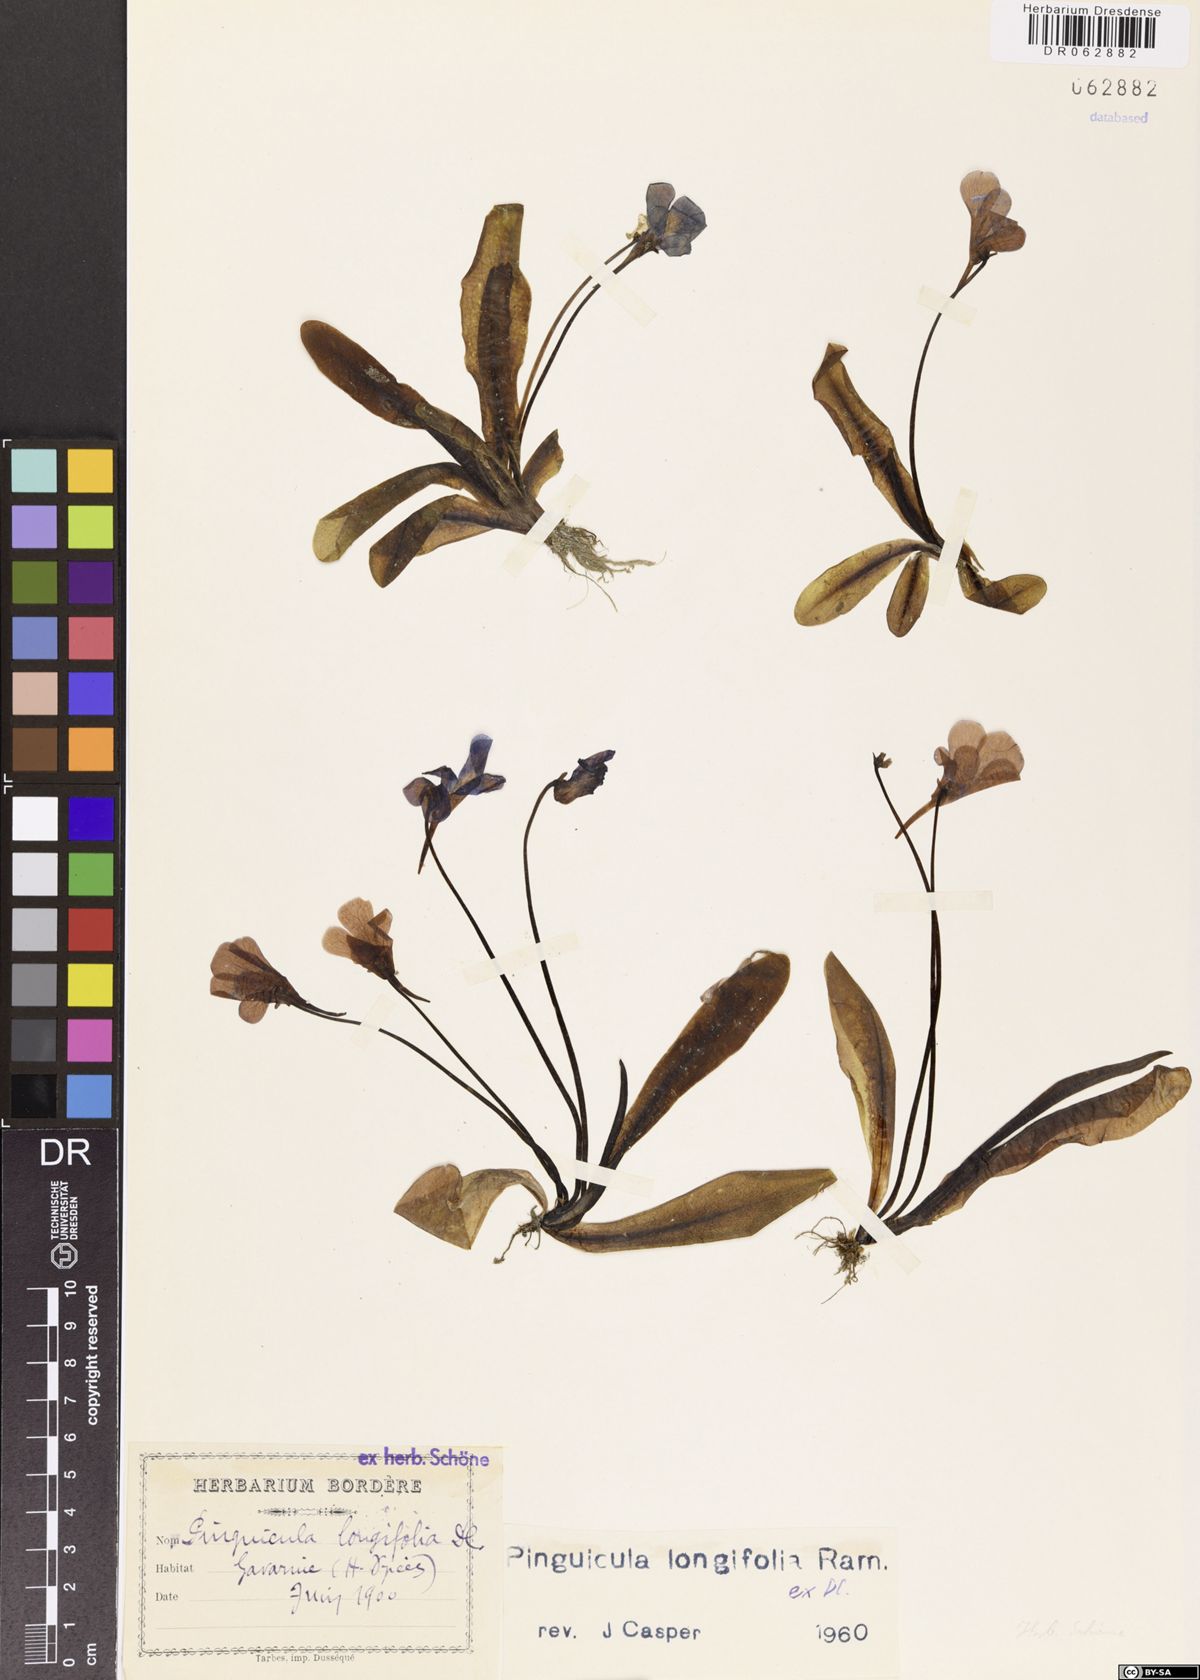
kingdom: Plantae
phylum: Tracheophyta
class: Magnoliopsida
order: Lamiales
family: Lentibulariaceae
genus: Pinguicula
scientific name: Pinguicula longifolia
